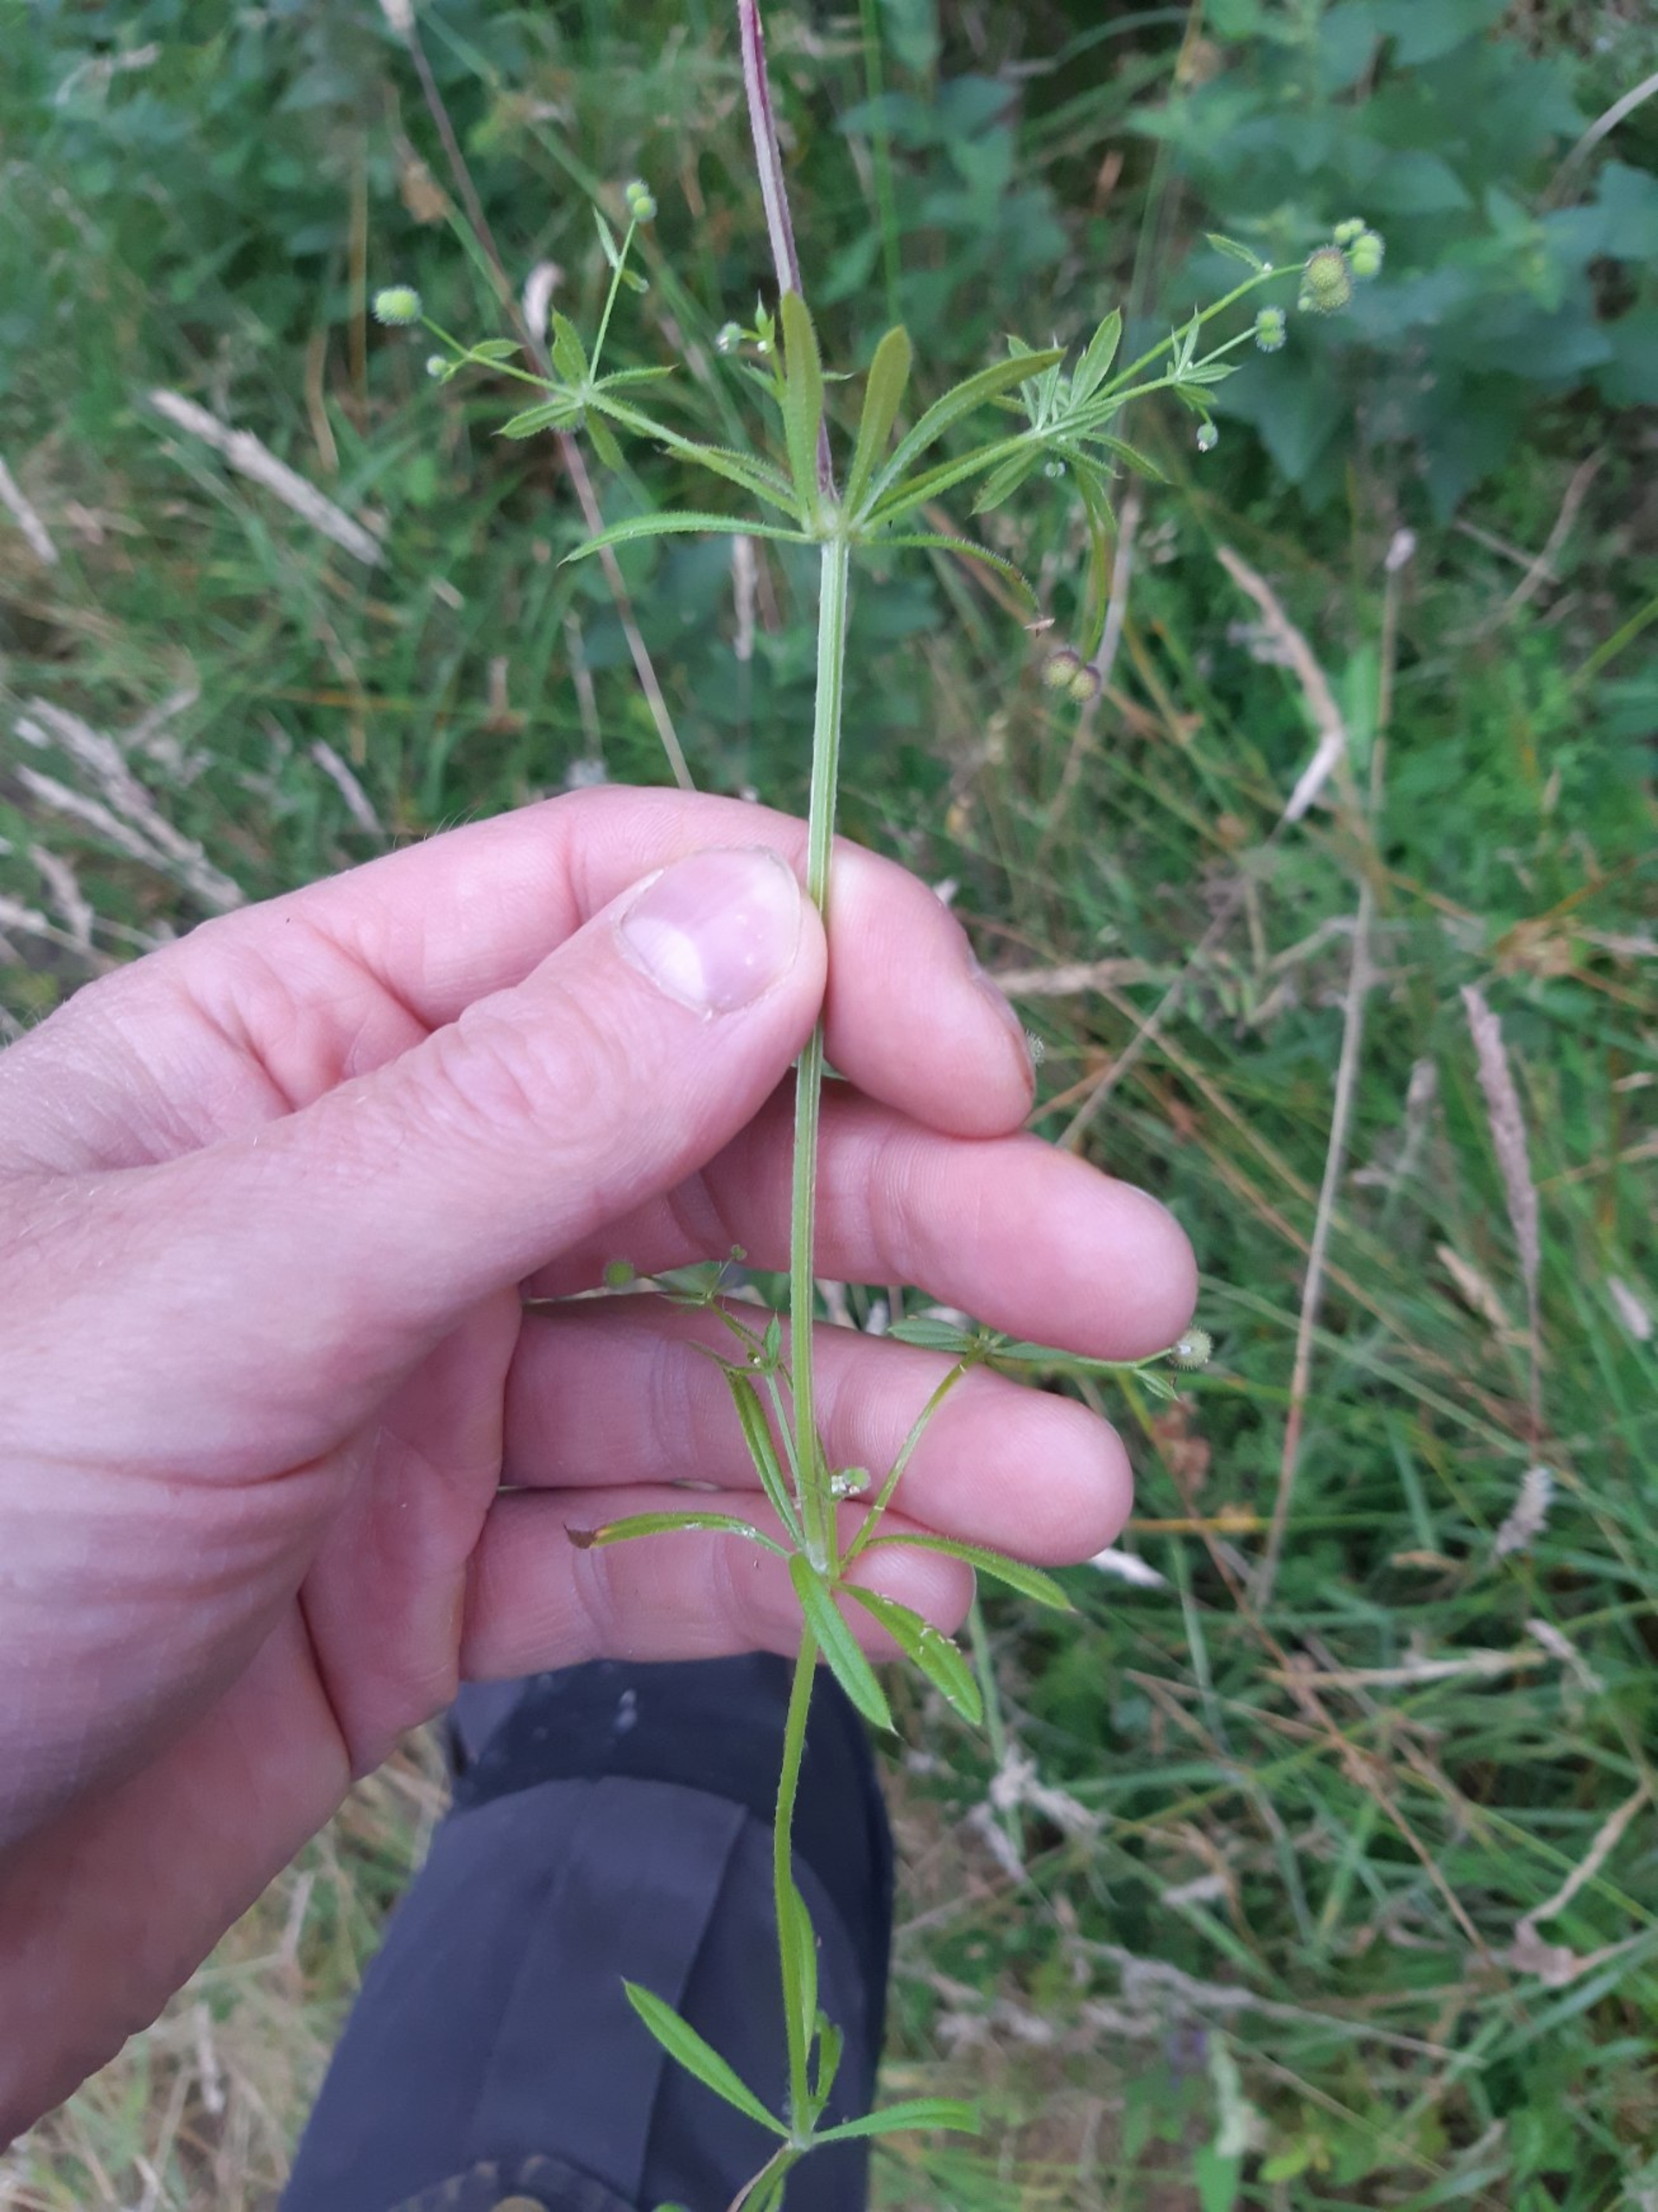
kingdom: Plantae
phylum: Tracheophyta
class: Magnoliopsida
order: Gentianales
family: Rubiaceae
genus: Galium
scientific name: Galium aparine
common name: Burre-snerre
